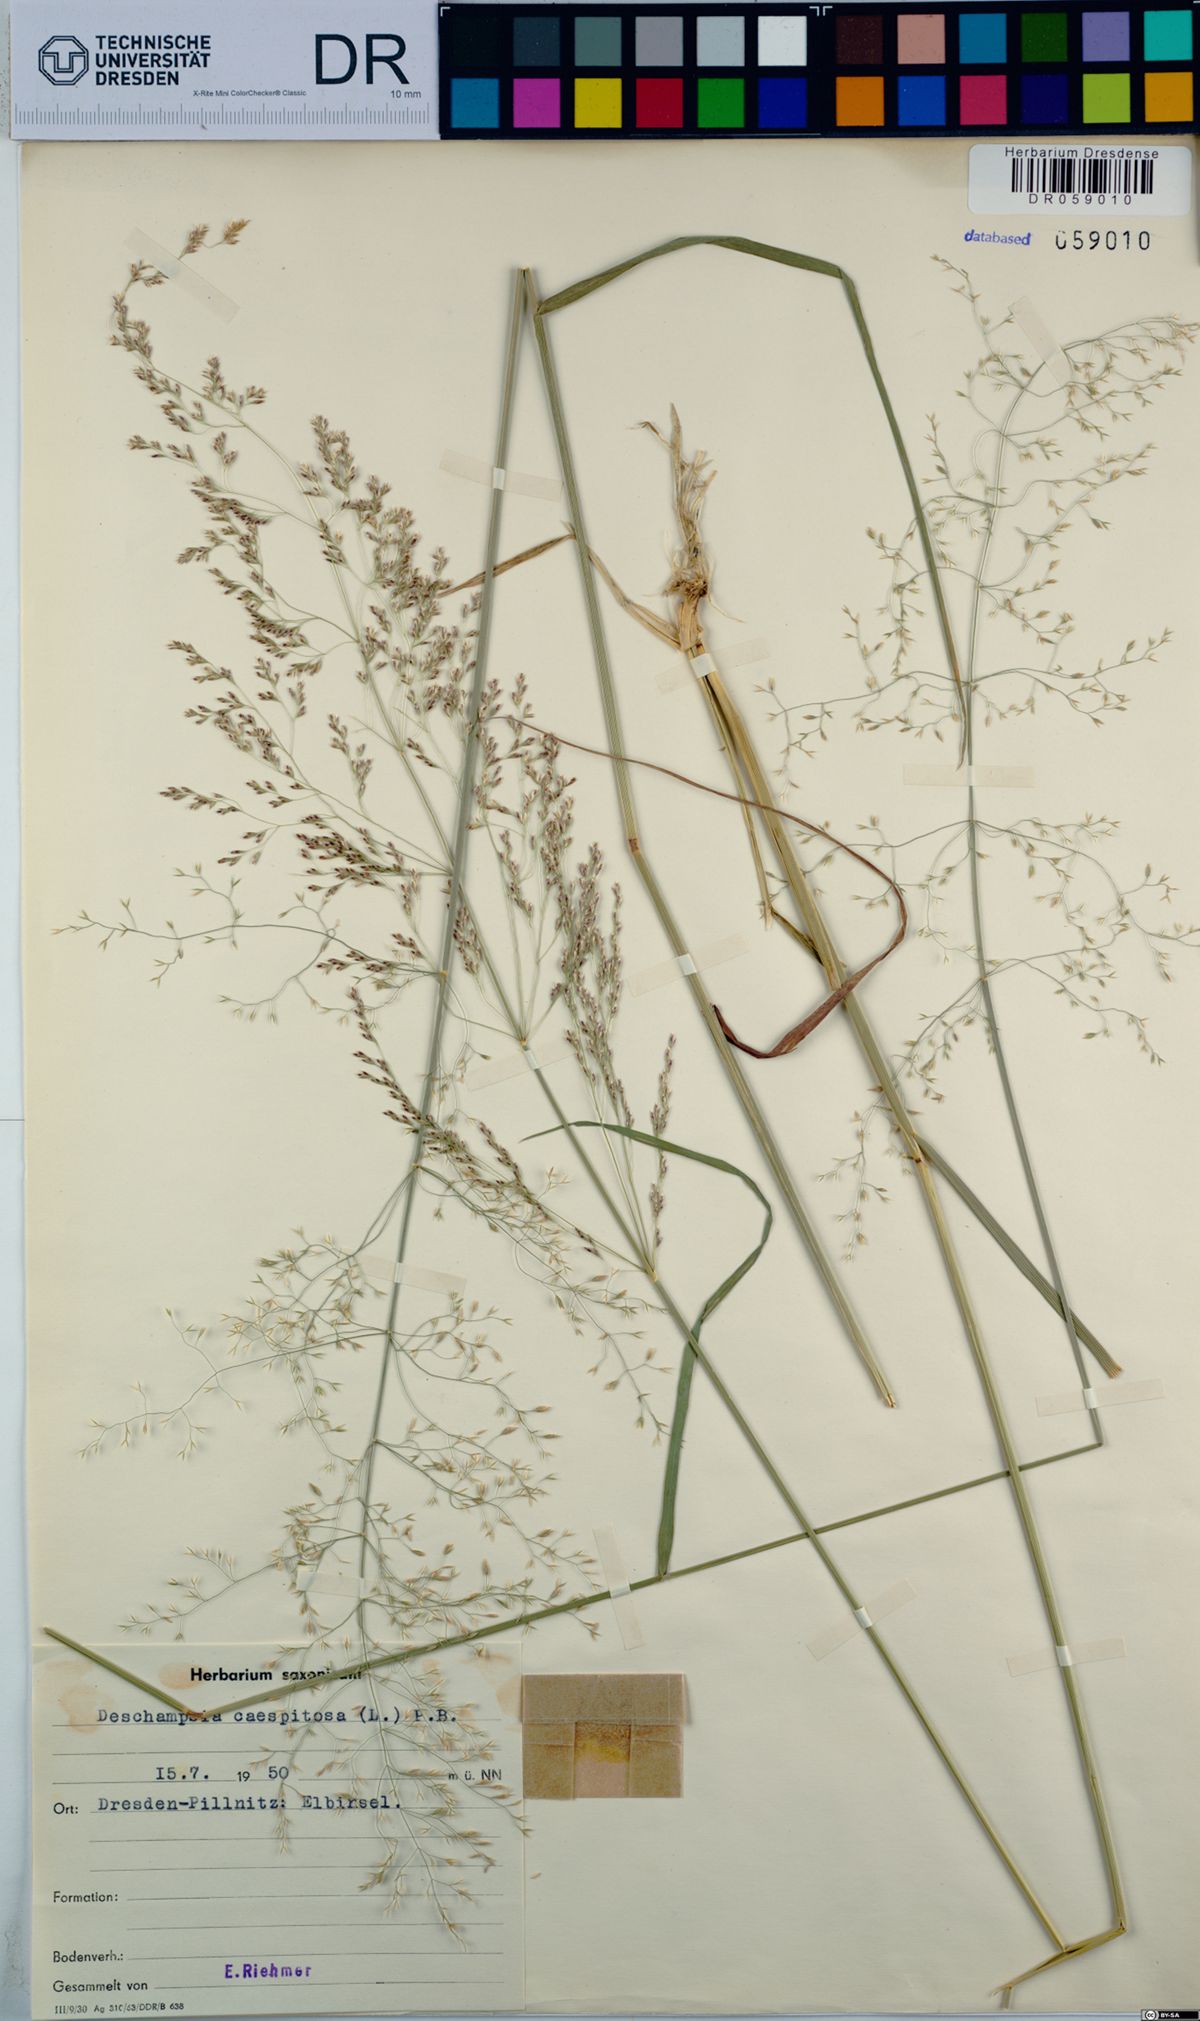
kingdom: Plantae
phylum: Tracheophyta
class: Liliopsida
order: Poales
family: Poaceae
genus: Deschampsia
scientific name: Deschampsia cespitosa
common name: Tufted hair-grass
